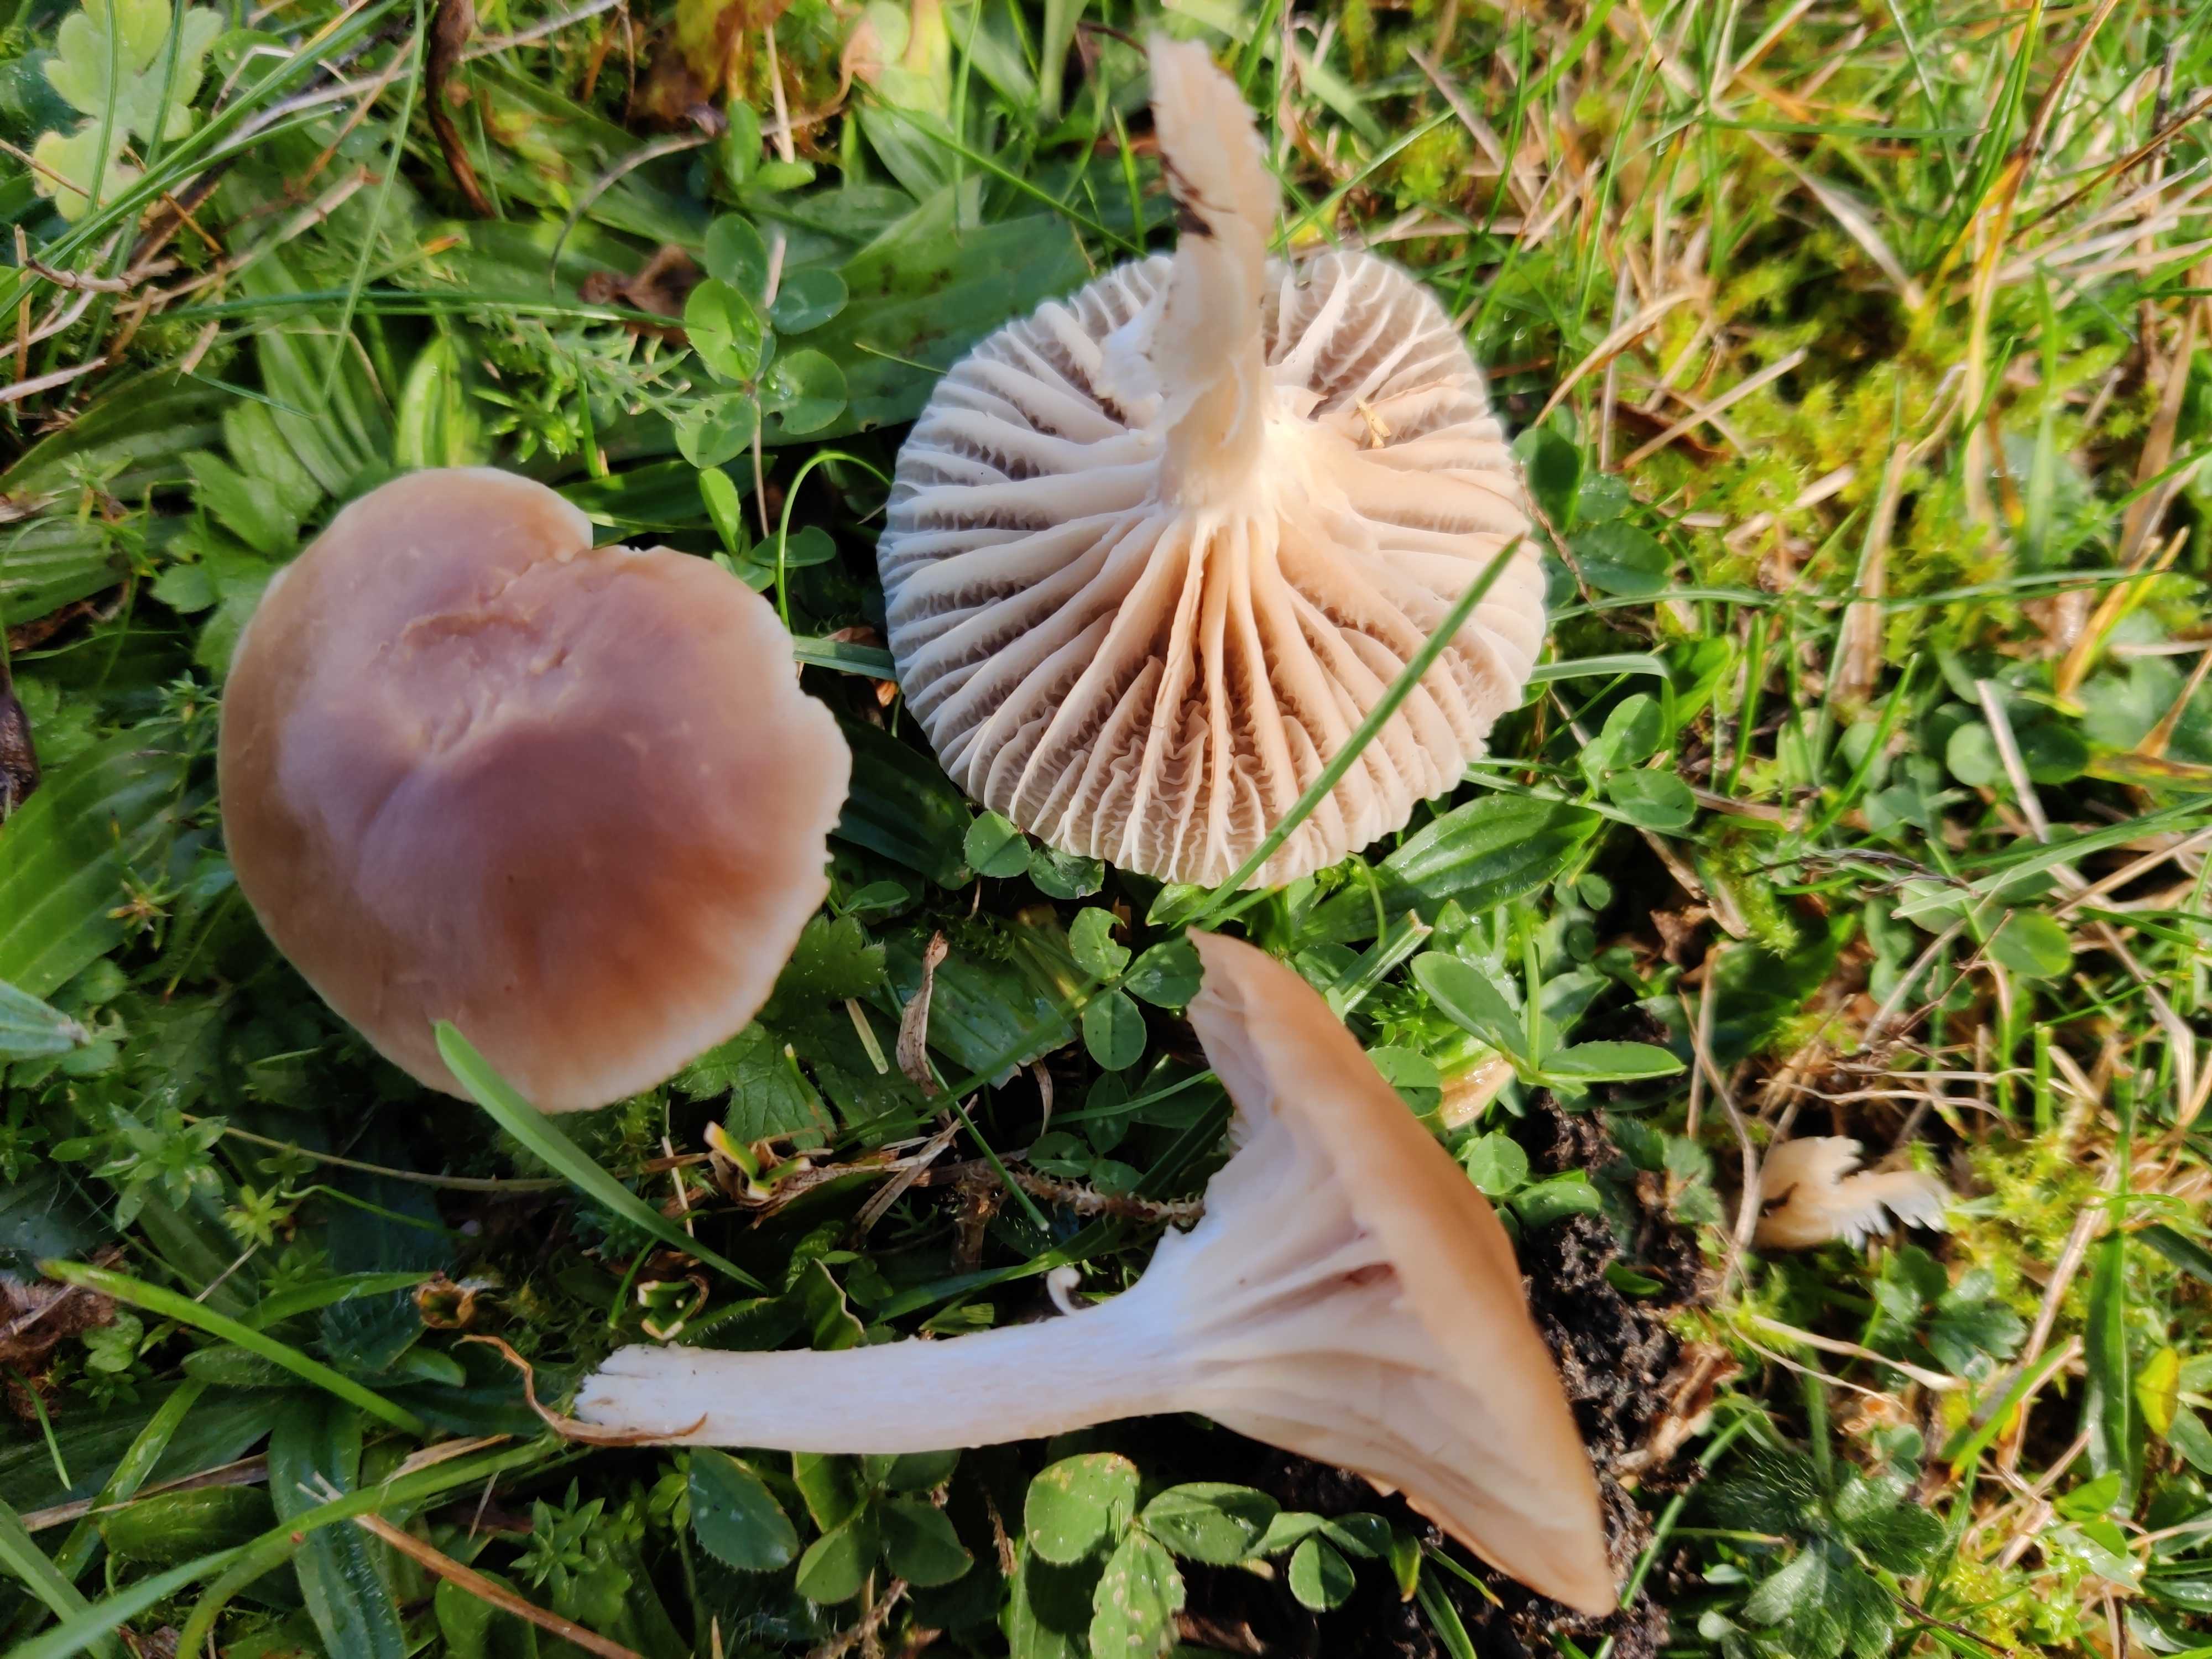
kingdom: Fungi
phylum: Basidiomycota
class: Agaricomycetes
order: Agaricales
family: Hygrophoraceae
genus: Cuphophyllus
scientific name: Cuphophyllus colemannianus
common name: rødbrun vokshat
